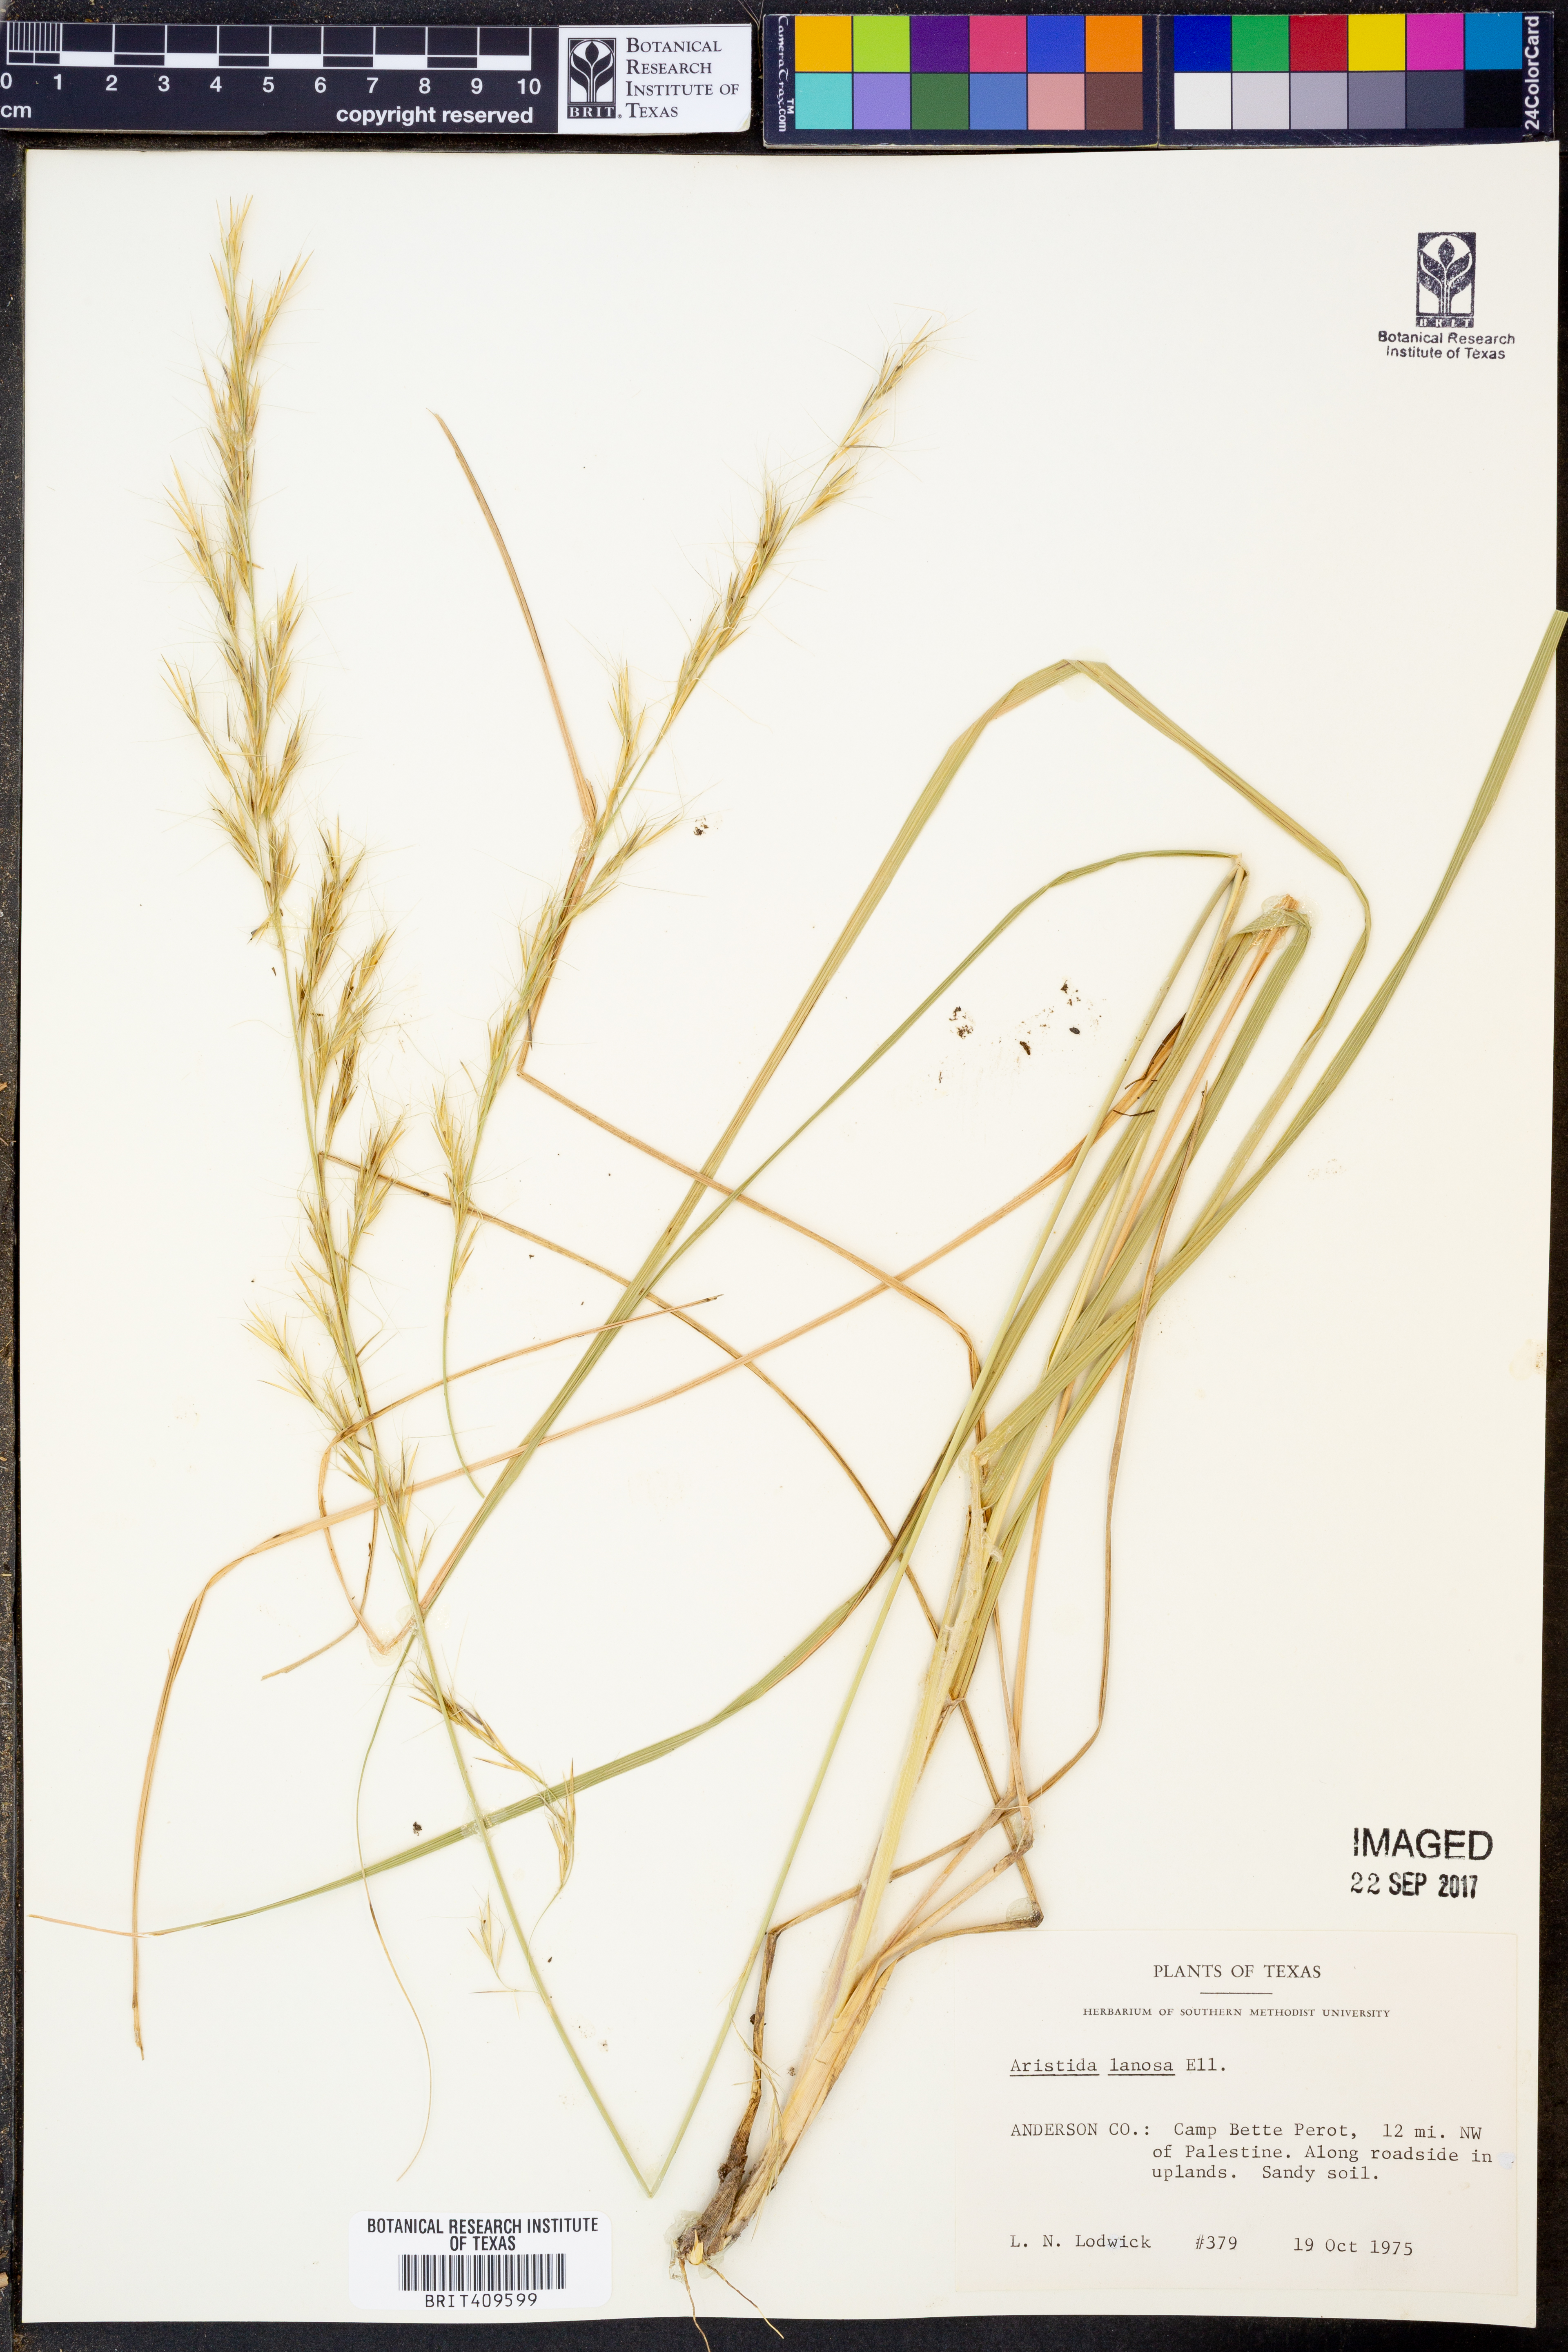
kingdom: Plantae
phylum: Tracheophyta
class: Liliopsida
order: Poales
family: Poaceae
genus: Aristida
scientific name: Aristida lanosa
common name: Woolly three-awn
